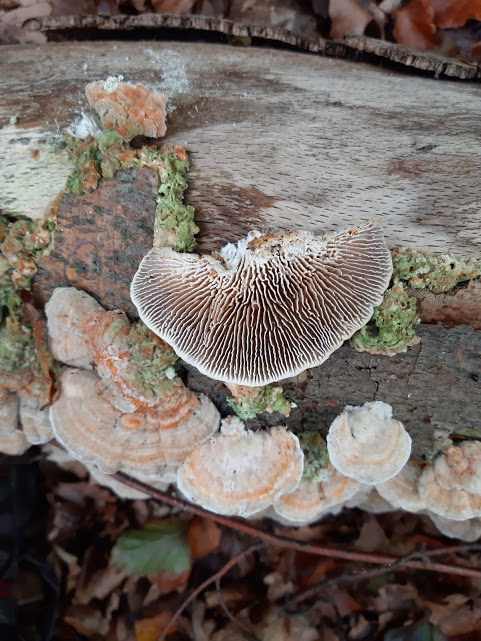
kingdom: Fungi
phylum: Basidiomycota
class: Agaricomycetes
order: Polyporales
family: Polyporaceae
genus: Lenzites
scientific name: Lenzites betulinus
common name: birke-læderporesvamp
